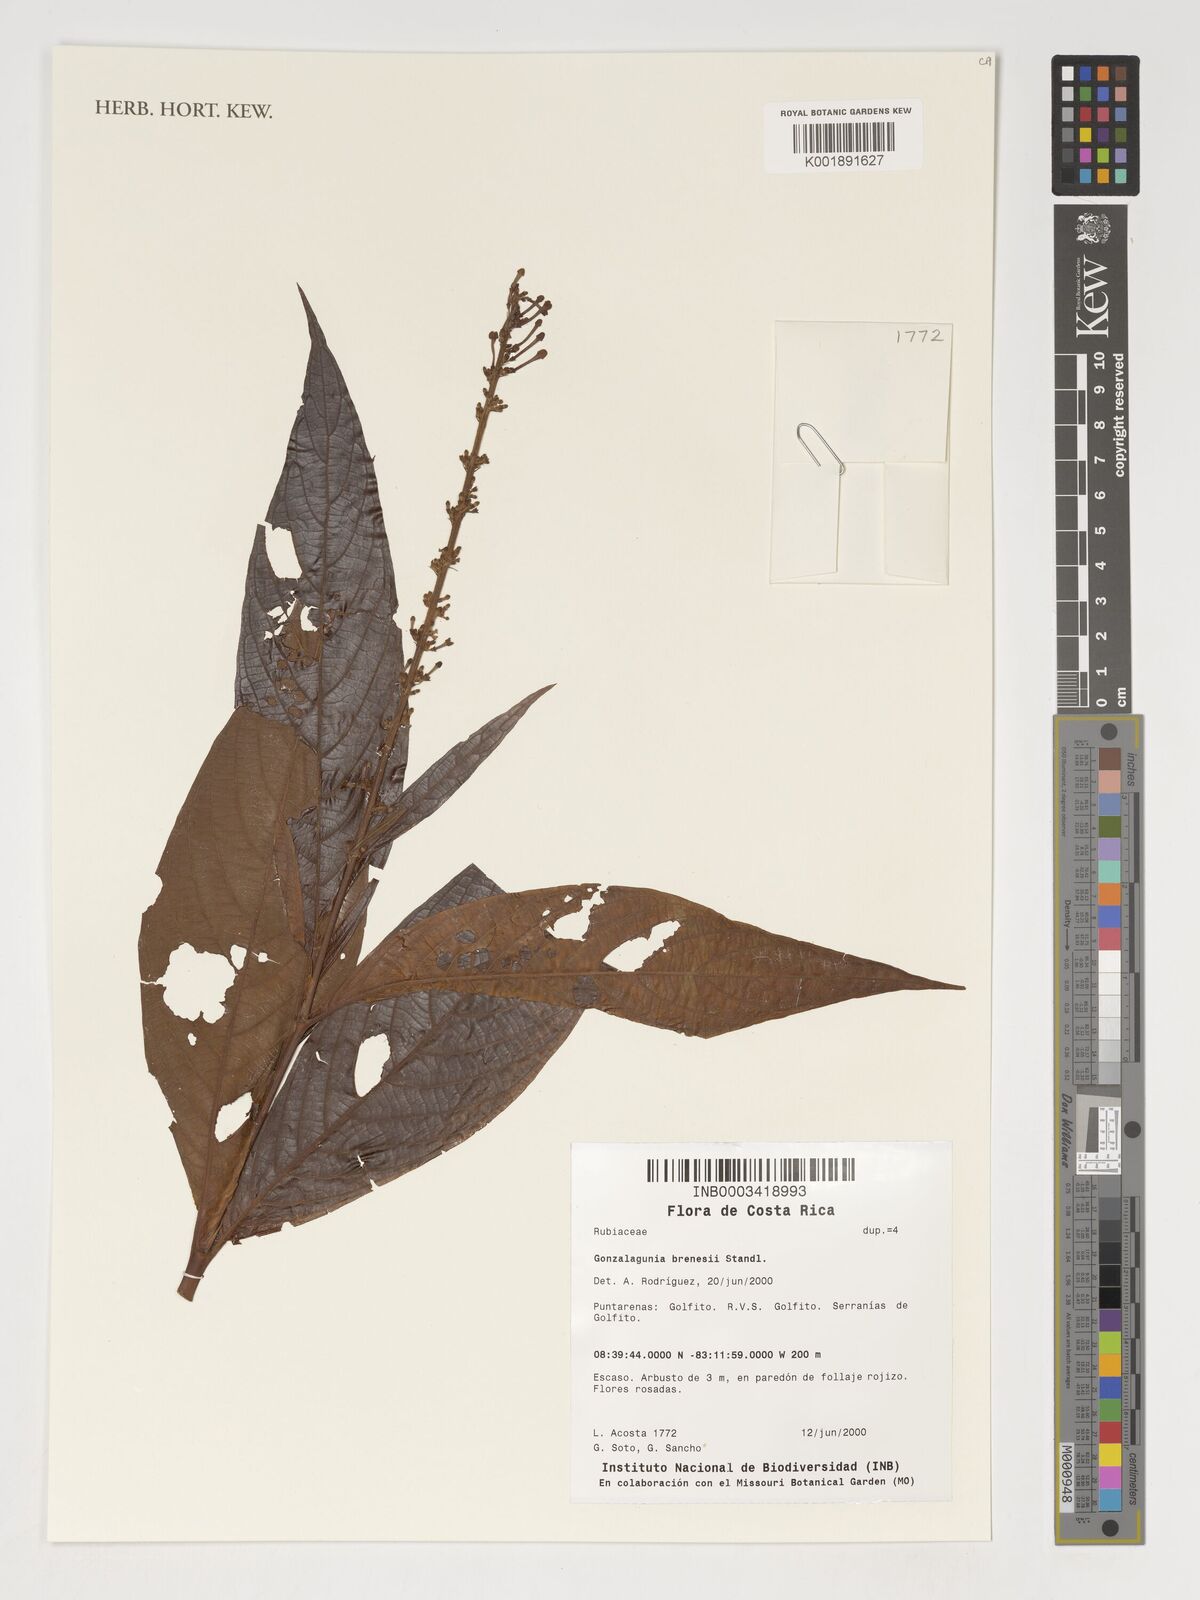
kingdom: Plantae
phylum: Tracheophyta
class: Magnoliopsida
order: Gentianales
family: Rubiaceae
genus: Gonzalagunia
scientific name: Gonzalagunia brenesii
